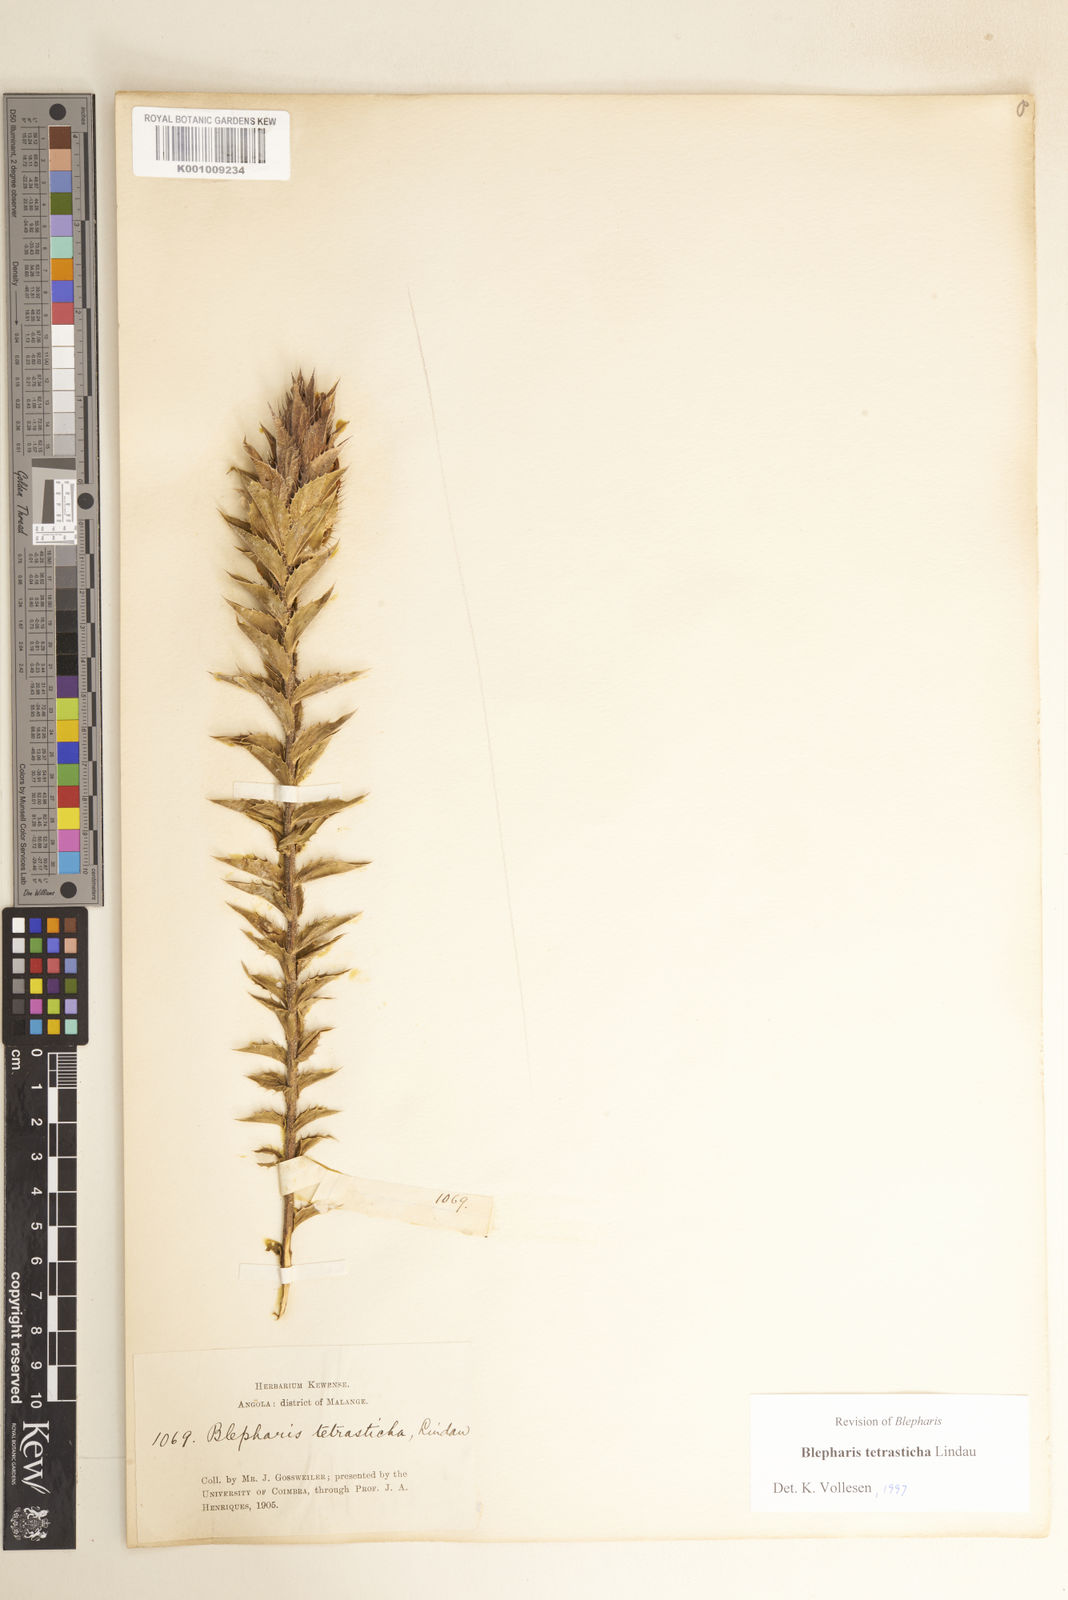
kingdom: Plantae
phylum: Tracheophyta
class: Magnoliopsida
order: Lamiales
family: Acanthaceae
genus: Blepharis
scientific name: Blepharis tetrasticha
